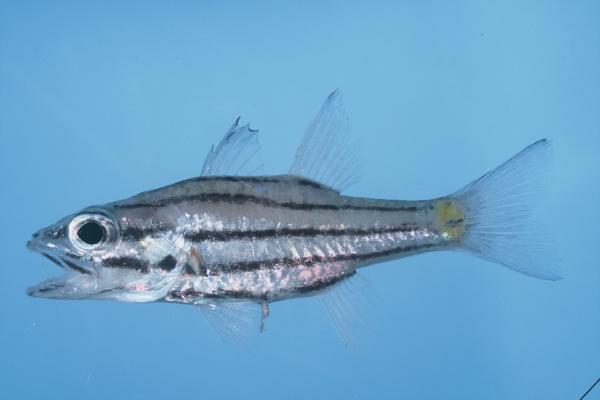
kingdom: Animalia
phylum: Chordata
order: Perciformes
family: Apogonidae
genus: Cheilodipterus
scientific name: Cheilodipterus quinquelineatus
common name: Five-lined cardinalfish
